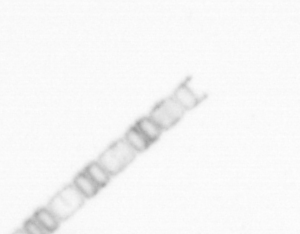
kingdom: Chromista
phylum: Ochrophyta
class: Bacillariophyceae
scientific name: Bacillariophyceae
